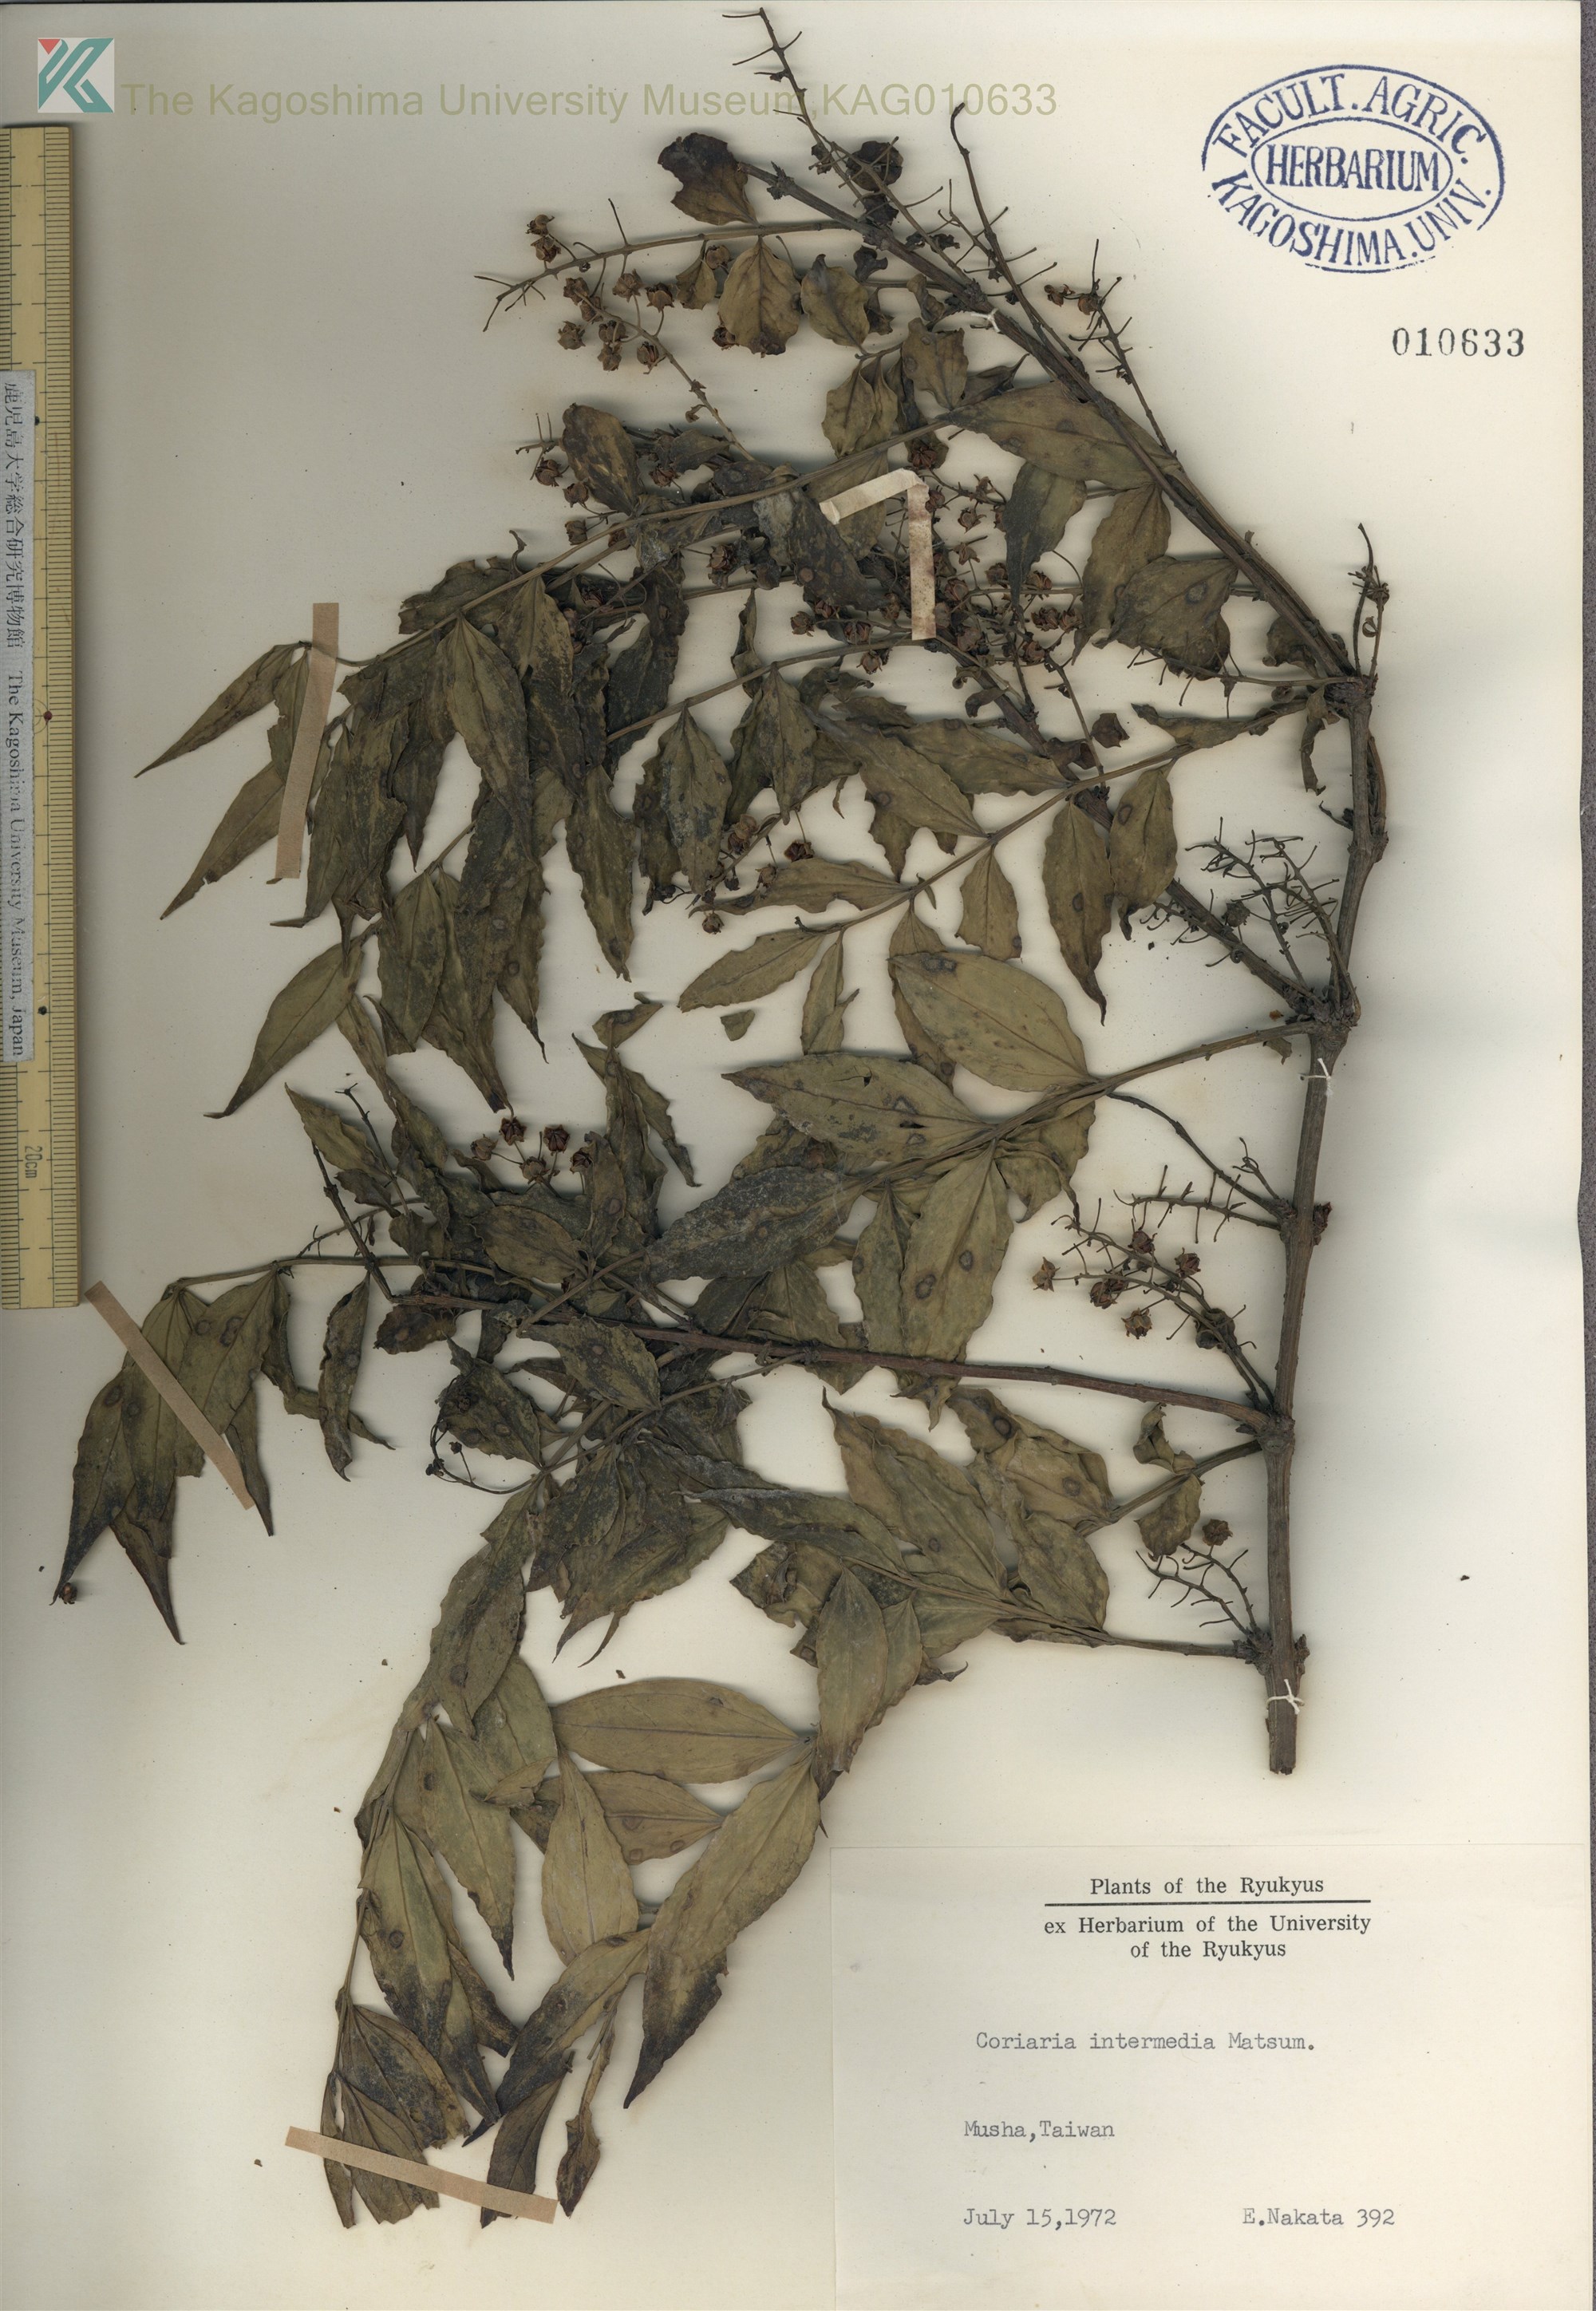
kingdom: Plantae
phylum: Tracheophyta
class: Magnoliopsida
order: Cucurbitales
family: Coriariaceae
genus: Coriaria
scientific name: Coriaria japonica
